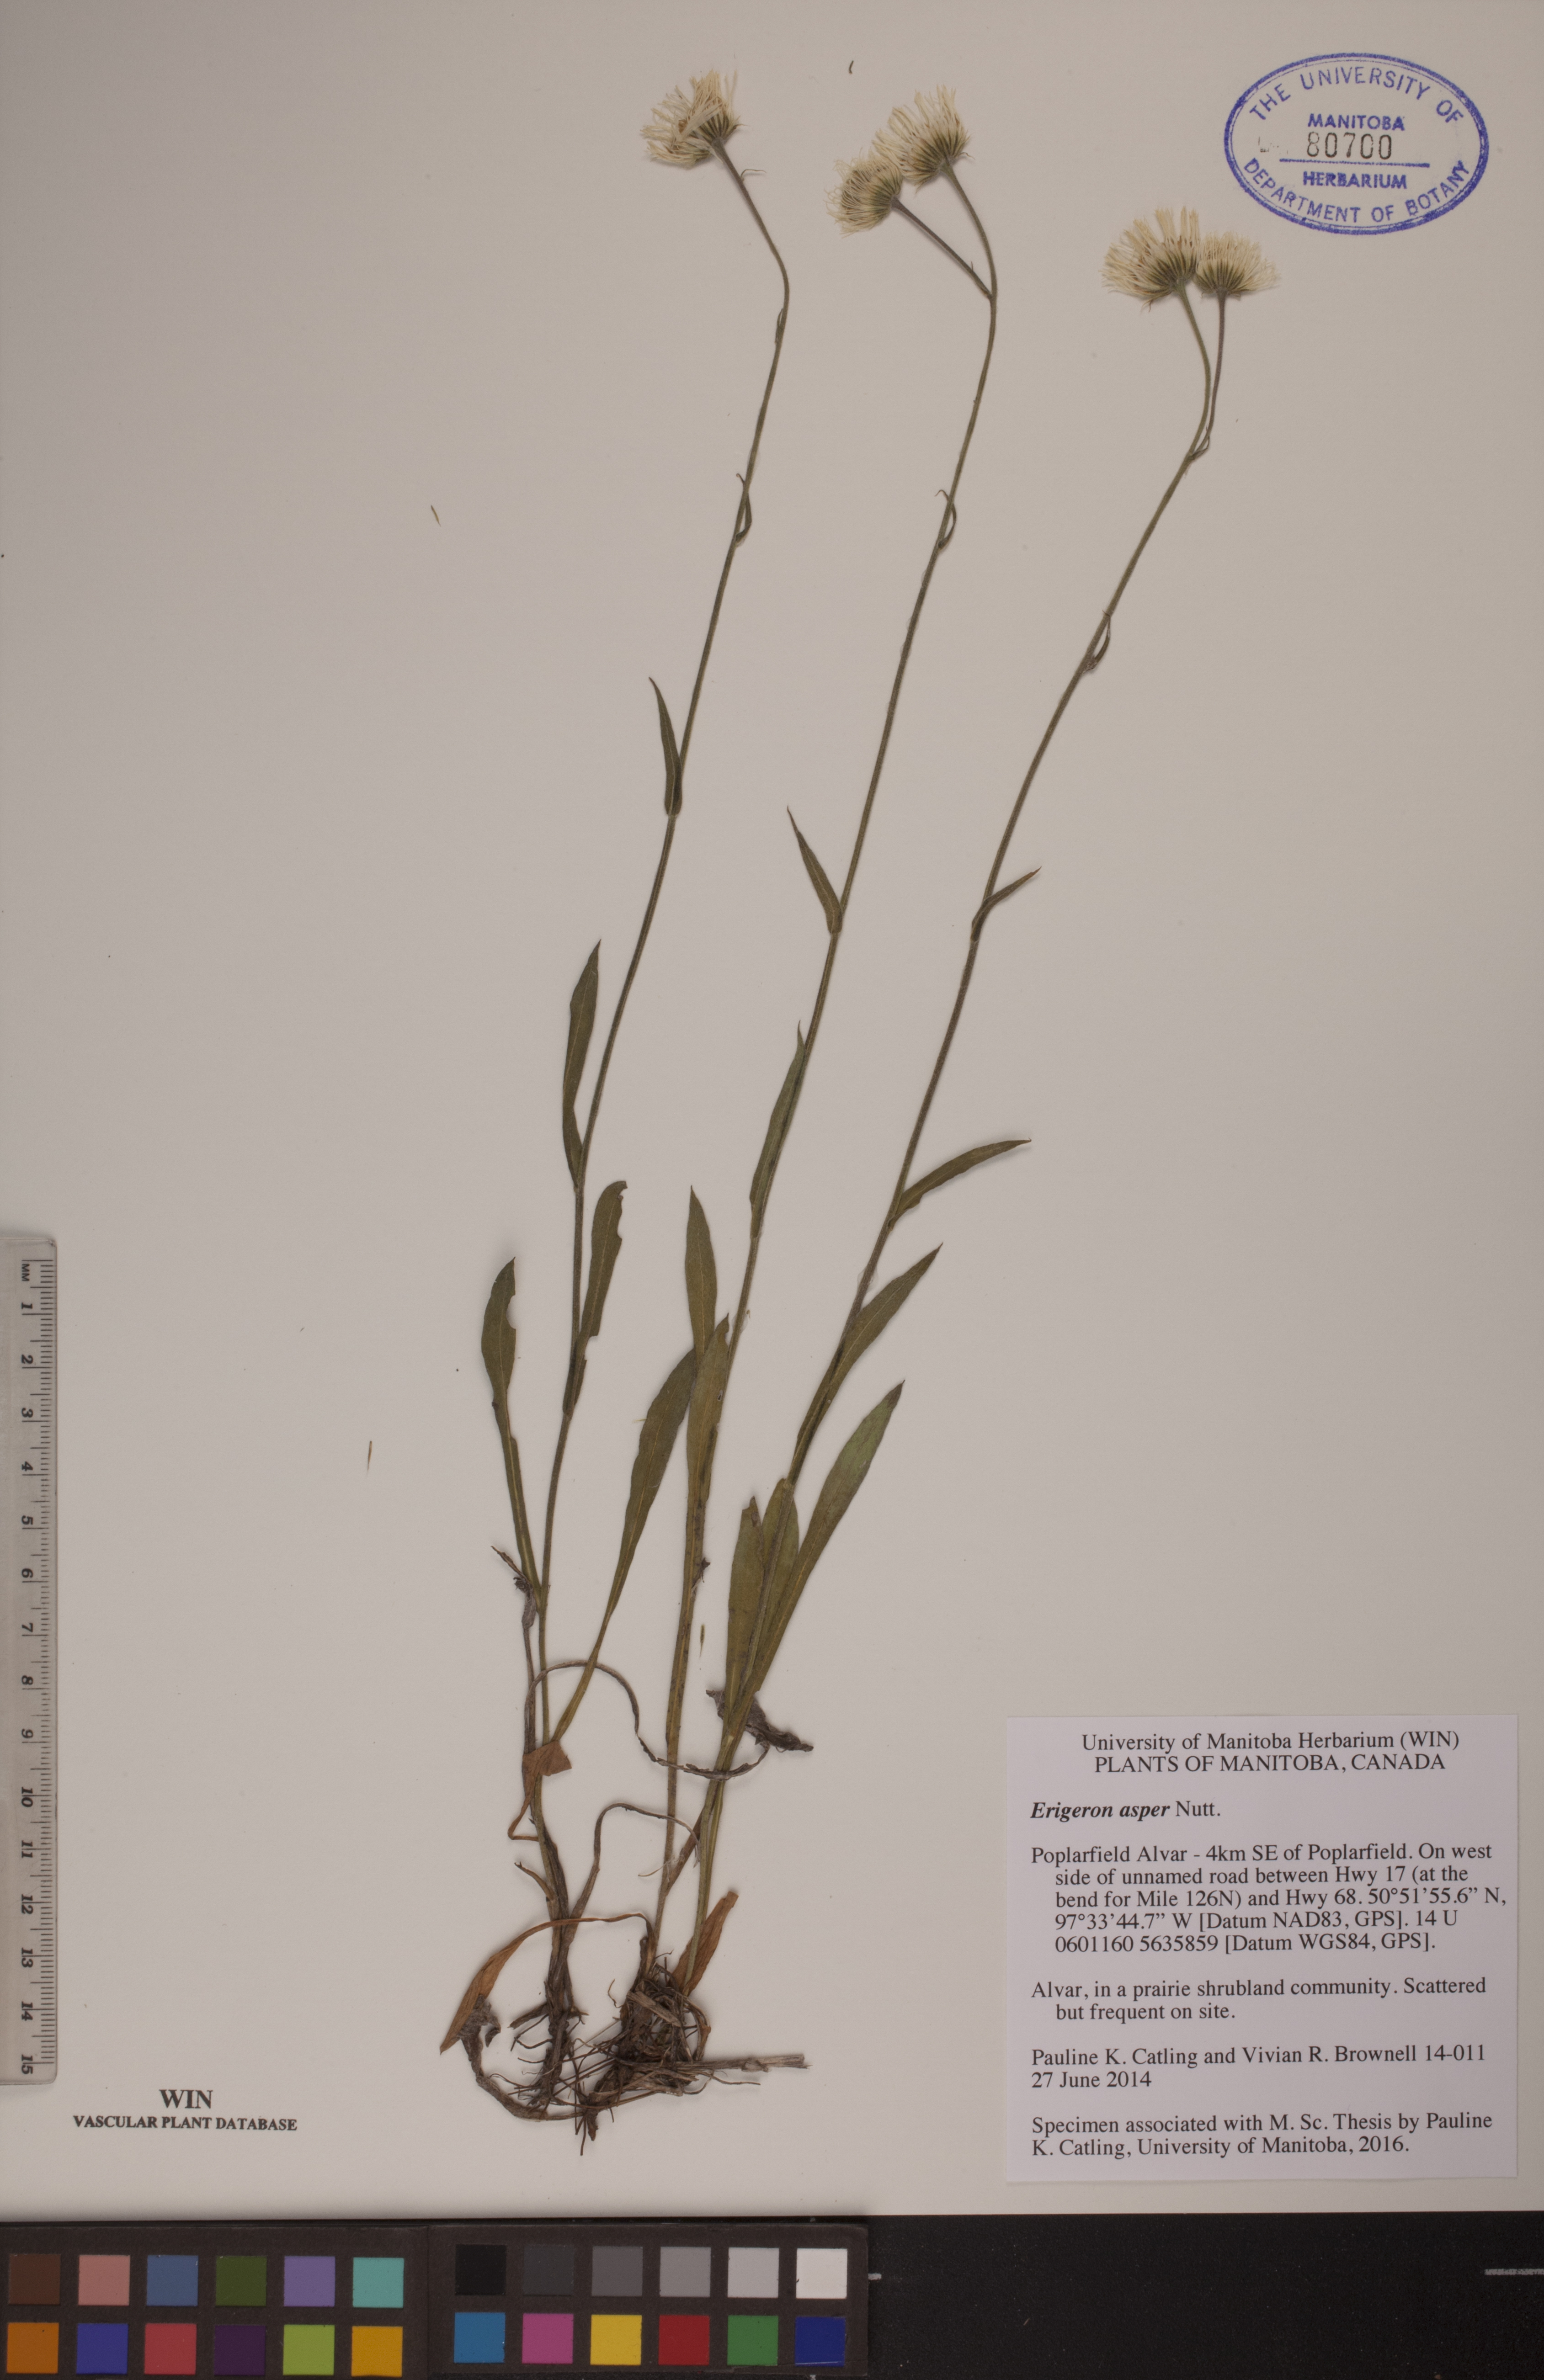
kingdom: Plantae
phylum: Tracheophyta
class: Magnoliopsida
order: Asterales
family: Asteraceae
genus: Erigeron
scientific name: Erigeron glabellus
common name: Smooth fleabane
